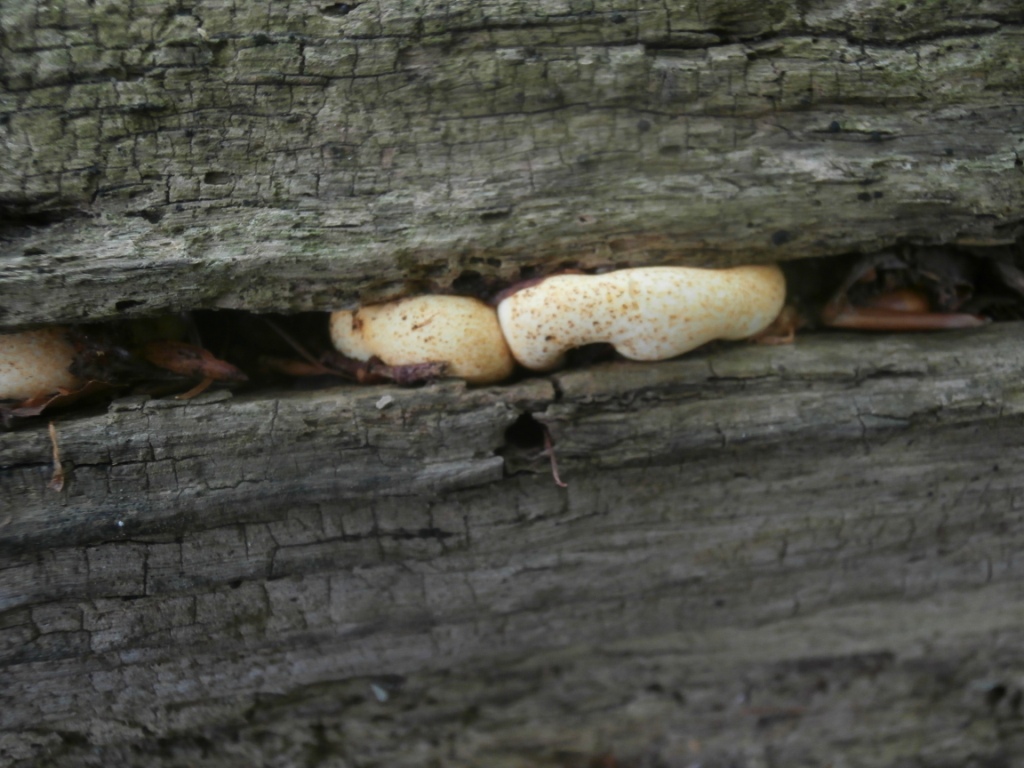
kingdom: Fungi
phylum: Basidiomycota
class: Agaricomycetes
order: Polyporales
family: Fomitopsidaceae
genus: Buglossoporus
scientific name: Buglossoporus quercinus
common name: egetunge
